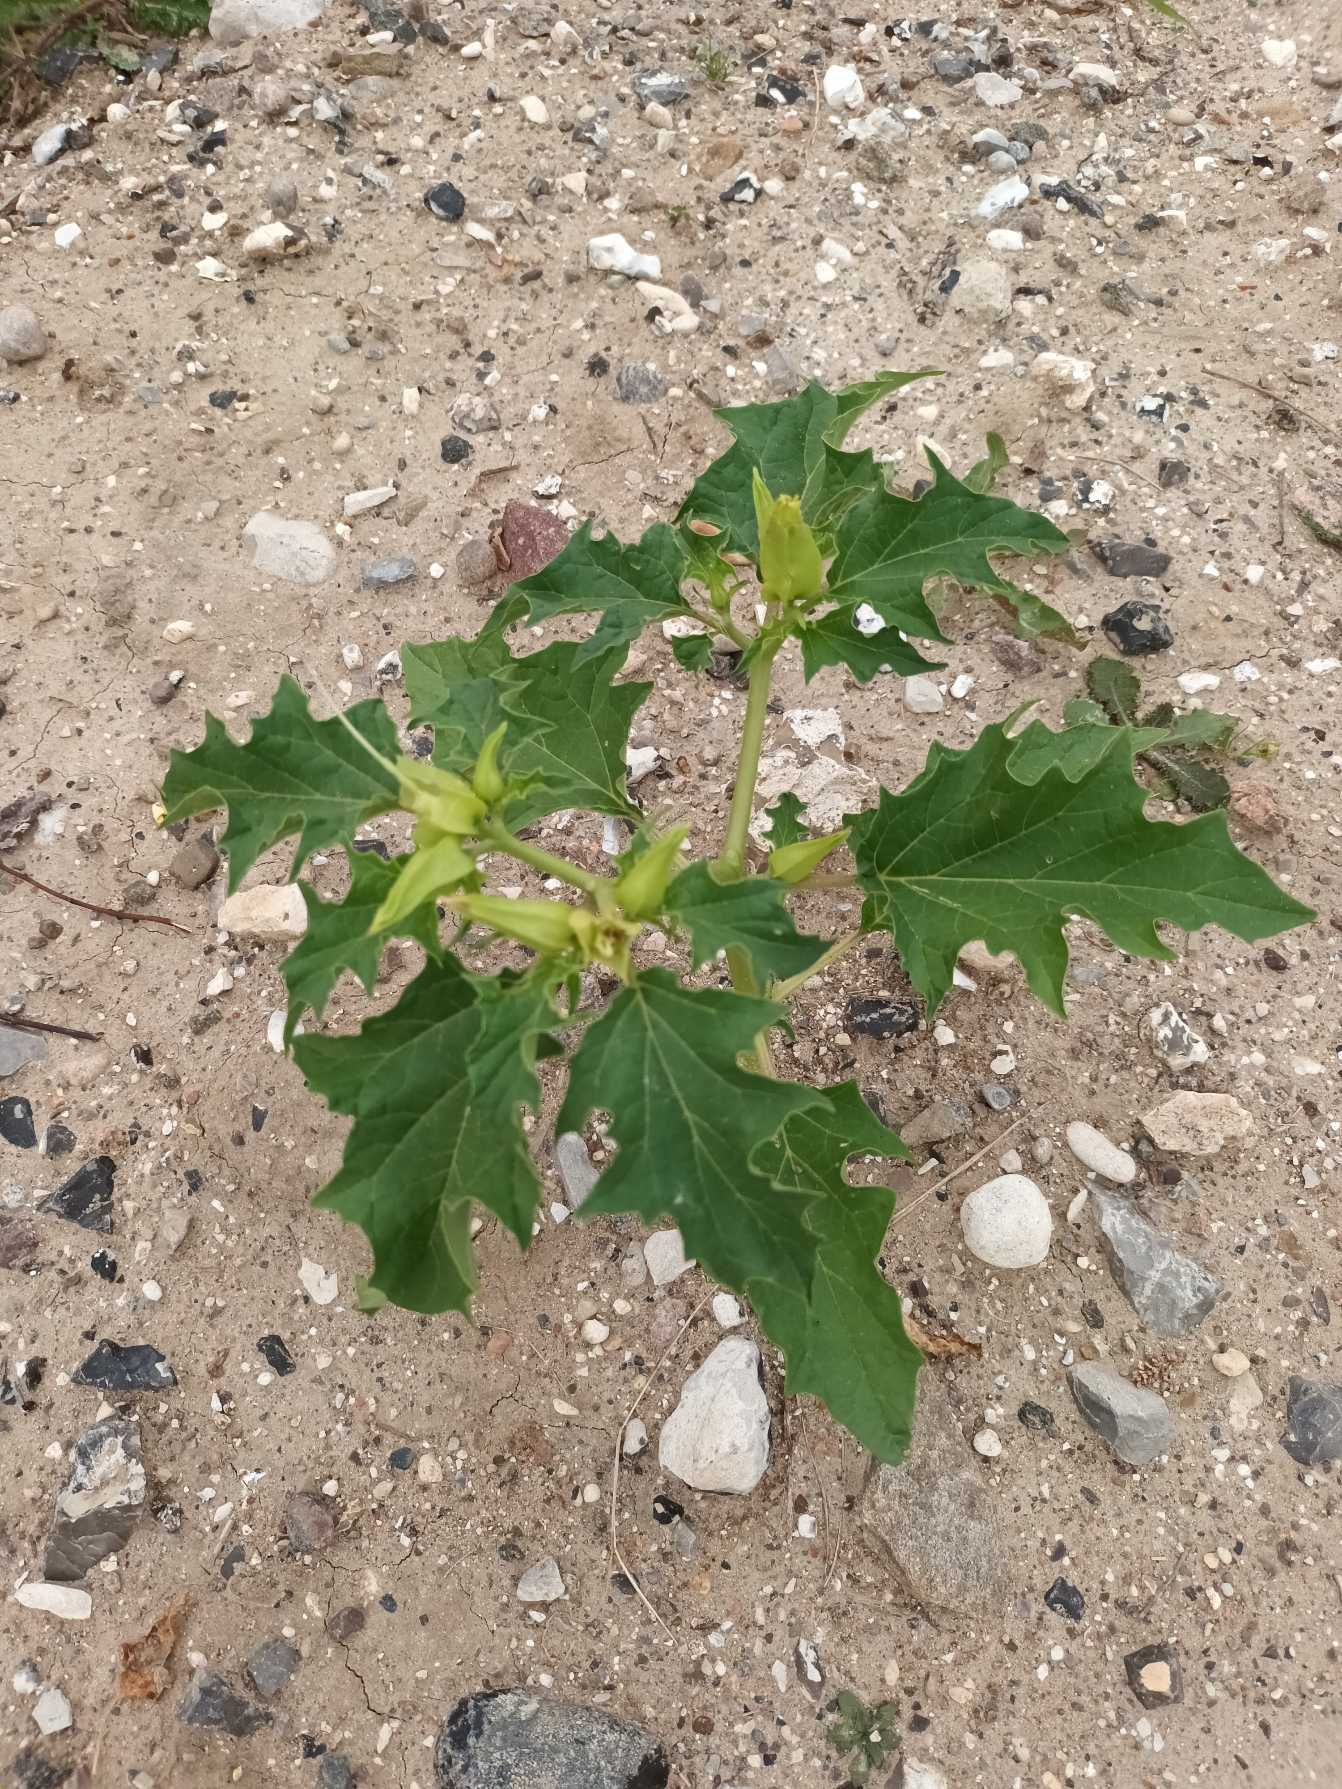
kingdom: Plantae
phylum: Tracheophyta
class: Magnoliopsida
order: Solanales
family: Solanaceae
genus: Datura
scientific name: Datura stramonium
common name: Pigæble
